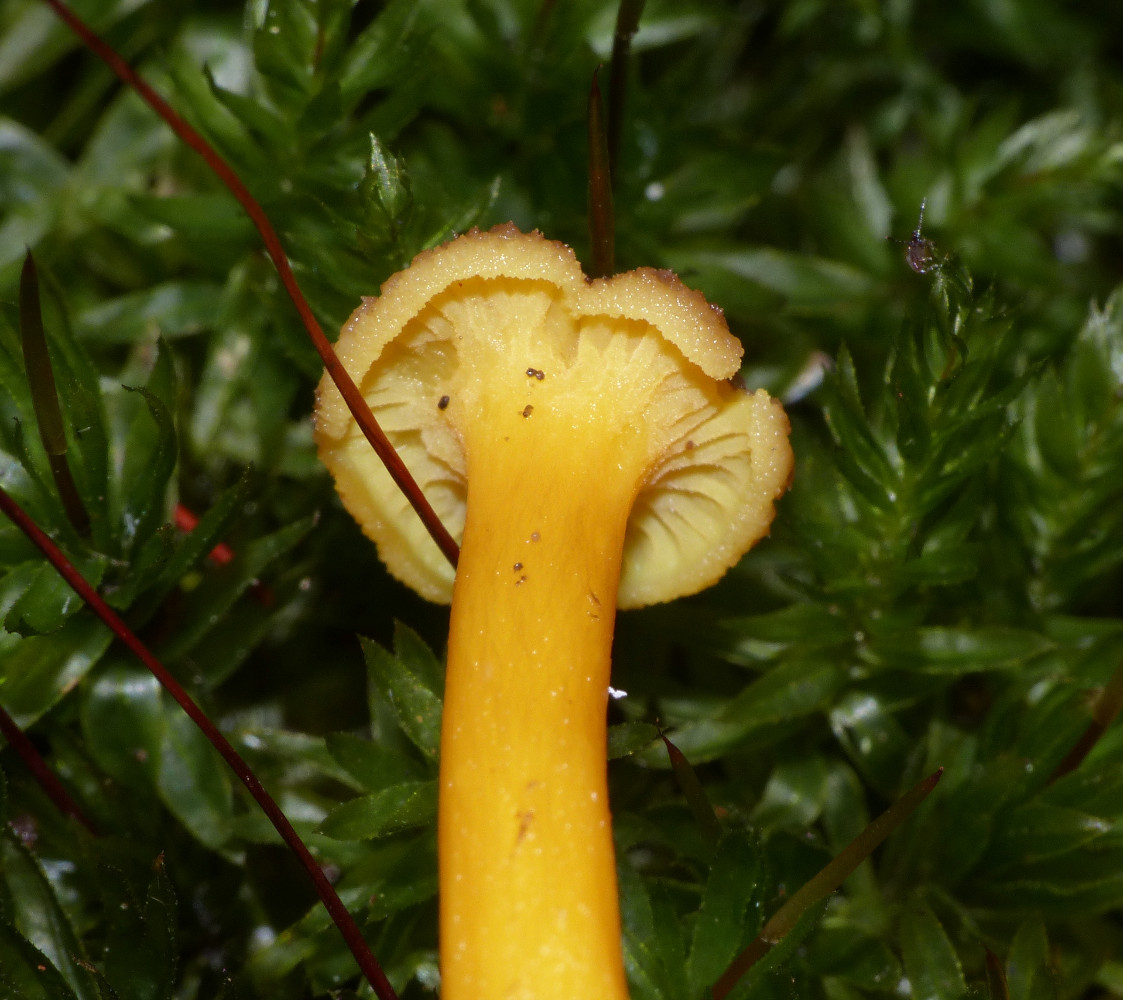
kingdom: Fungi
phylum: Basidiomycota
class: Agaricomycetes
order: Cantharellales
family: Hydnaceae
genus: Craterellus
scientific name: Craterellus tubaeformis
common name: tragt-kantarel
